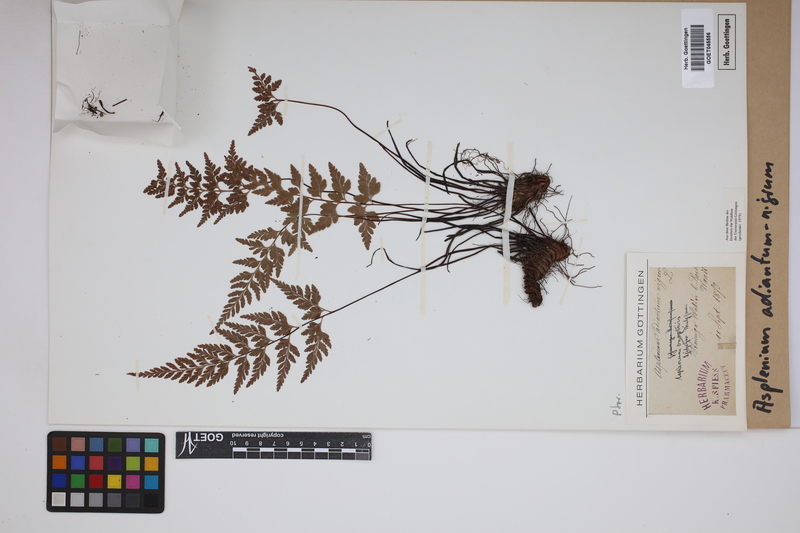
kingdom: Plantae
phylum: Tracheophyta
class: Polypodiopsida
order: Polypodiales
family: Aspleniaceae
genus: Asplenium
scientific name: Asplenium adiantum-nigrum
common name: Black spleenwort
